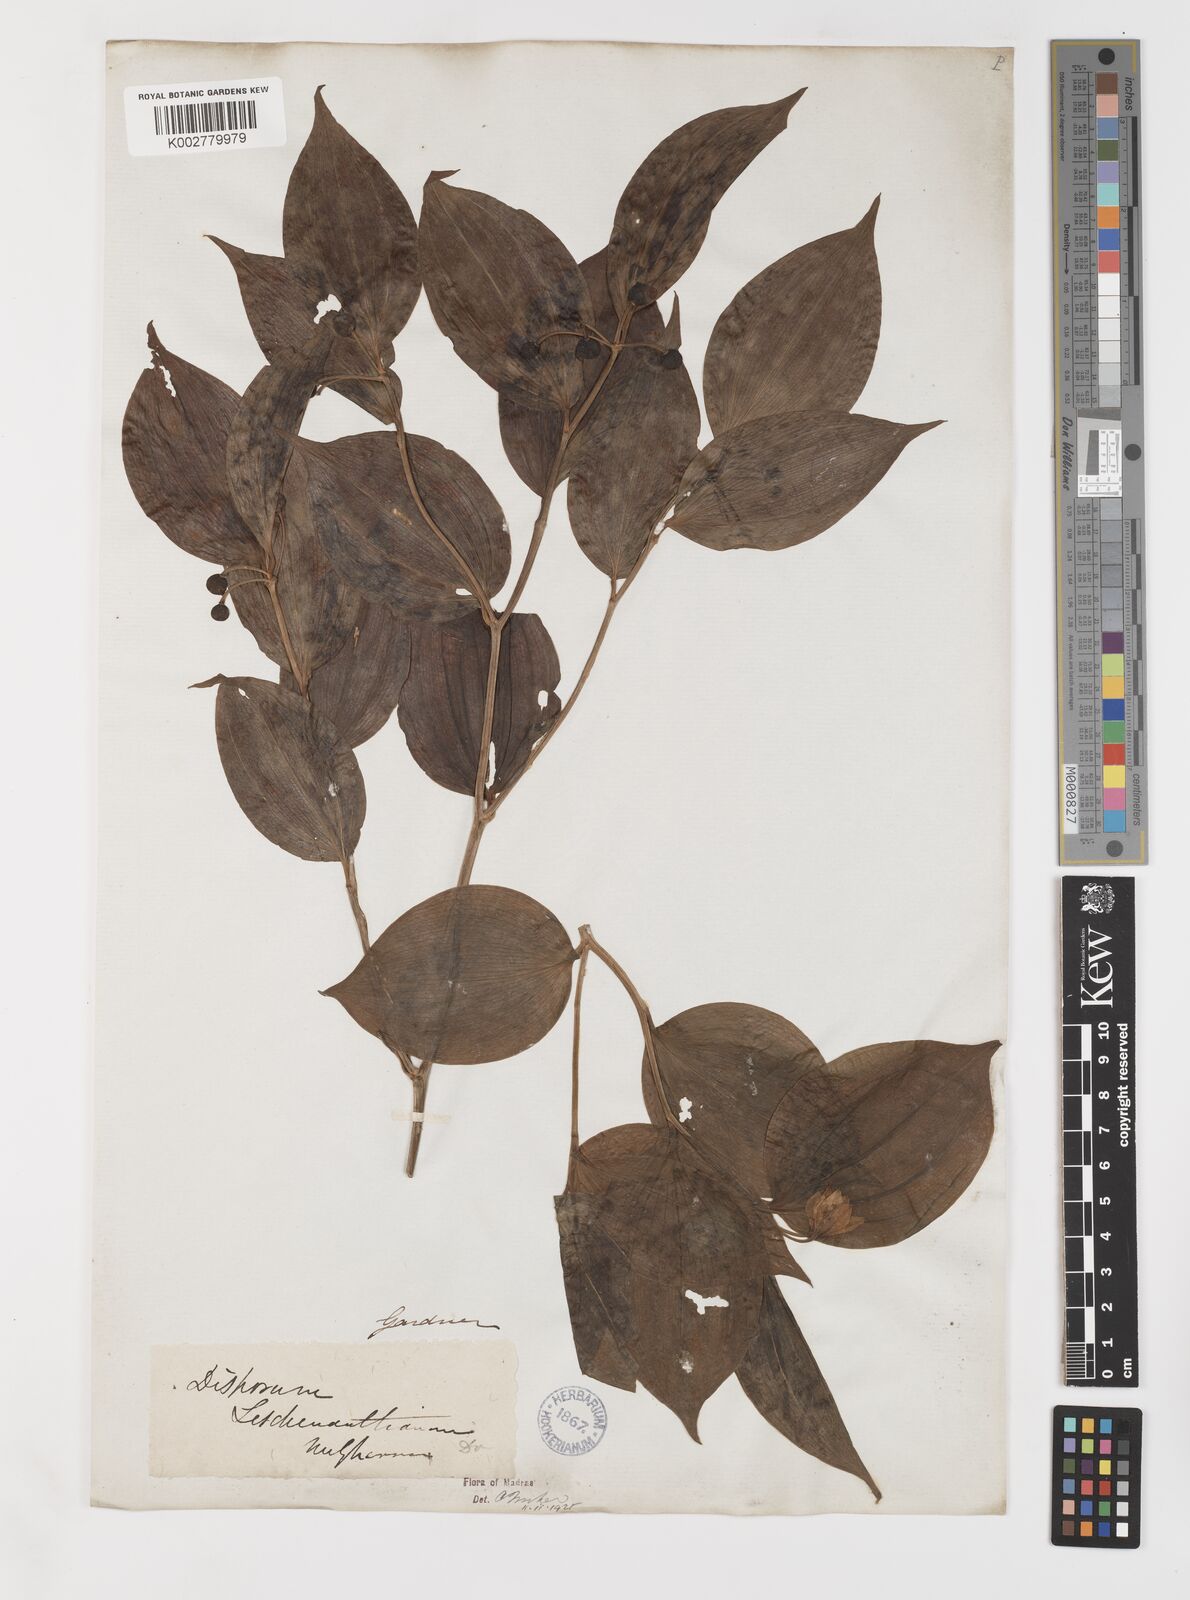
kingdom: Plantae
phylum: Tracheophyta
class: Liliopsida
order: Liliales
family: Colchicaceae
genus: Disporum
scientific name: Disporum cantoniense
